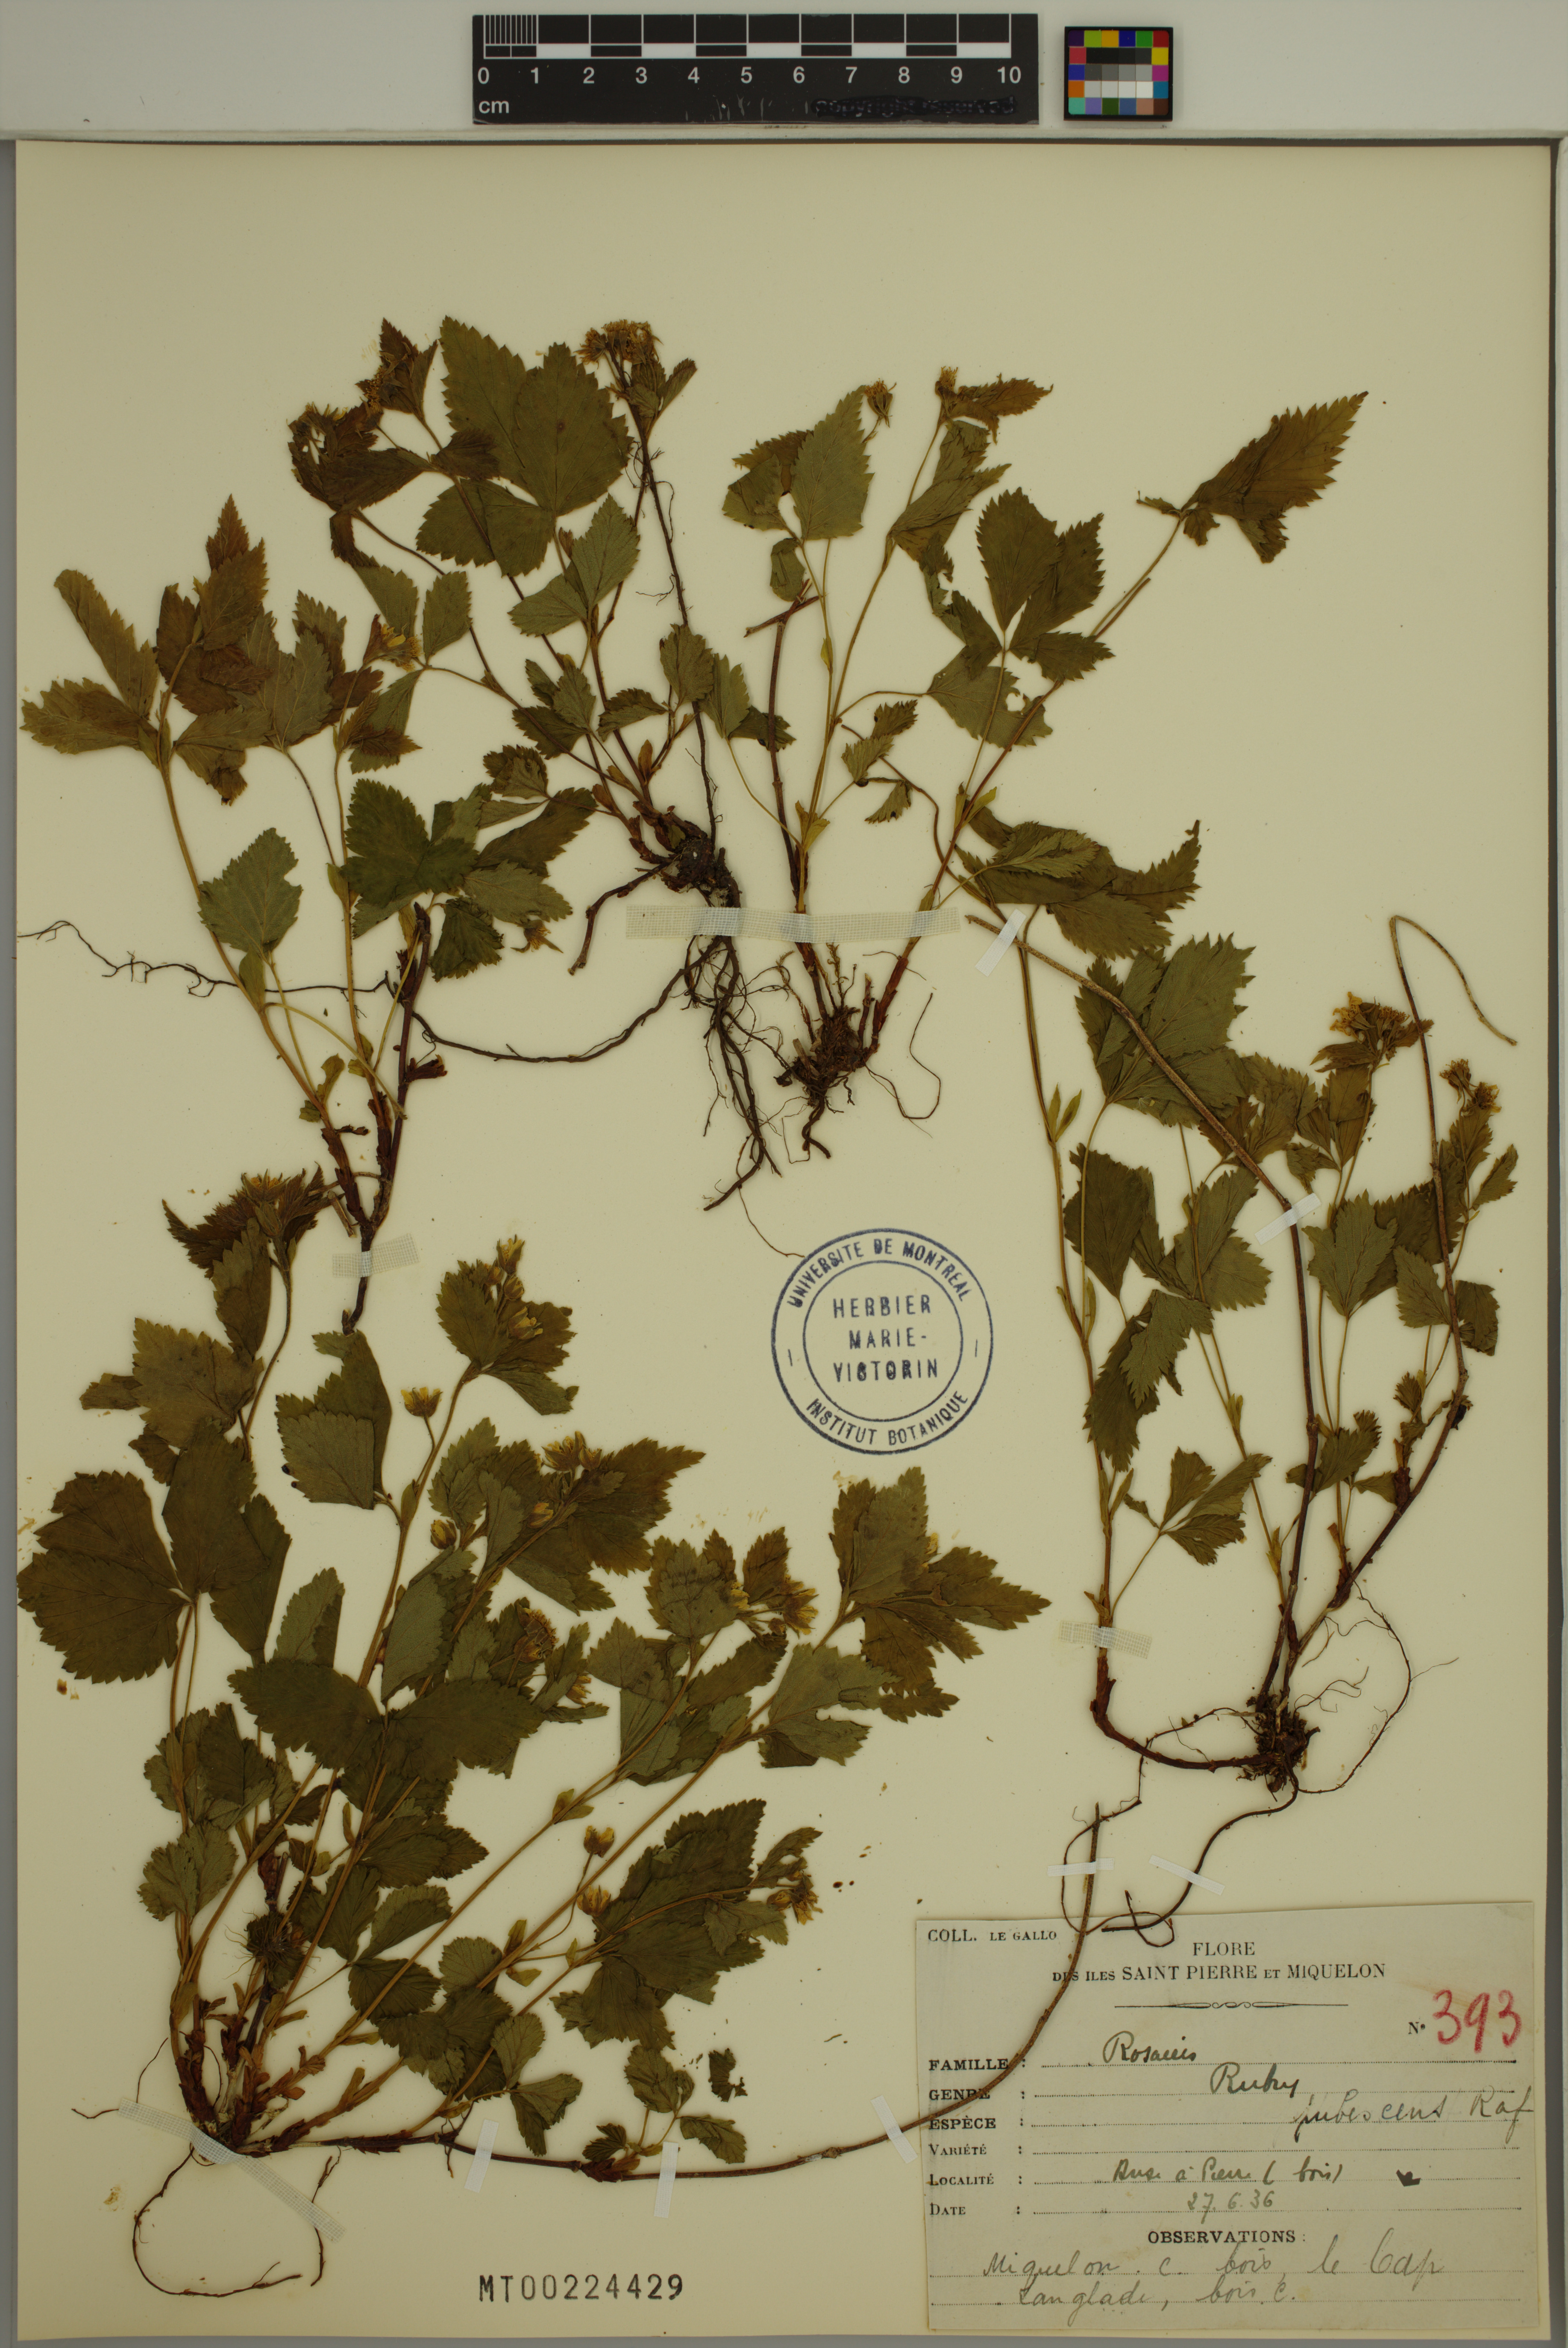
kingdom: Plantae
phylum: Tracheophyta
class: Magnoliopsida
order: Rosales
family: Rosaceae
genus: Rubus
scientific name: Rubus pubescens
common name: Dwarf raspberry
